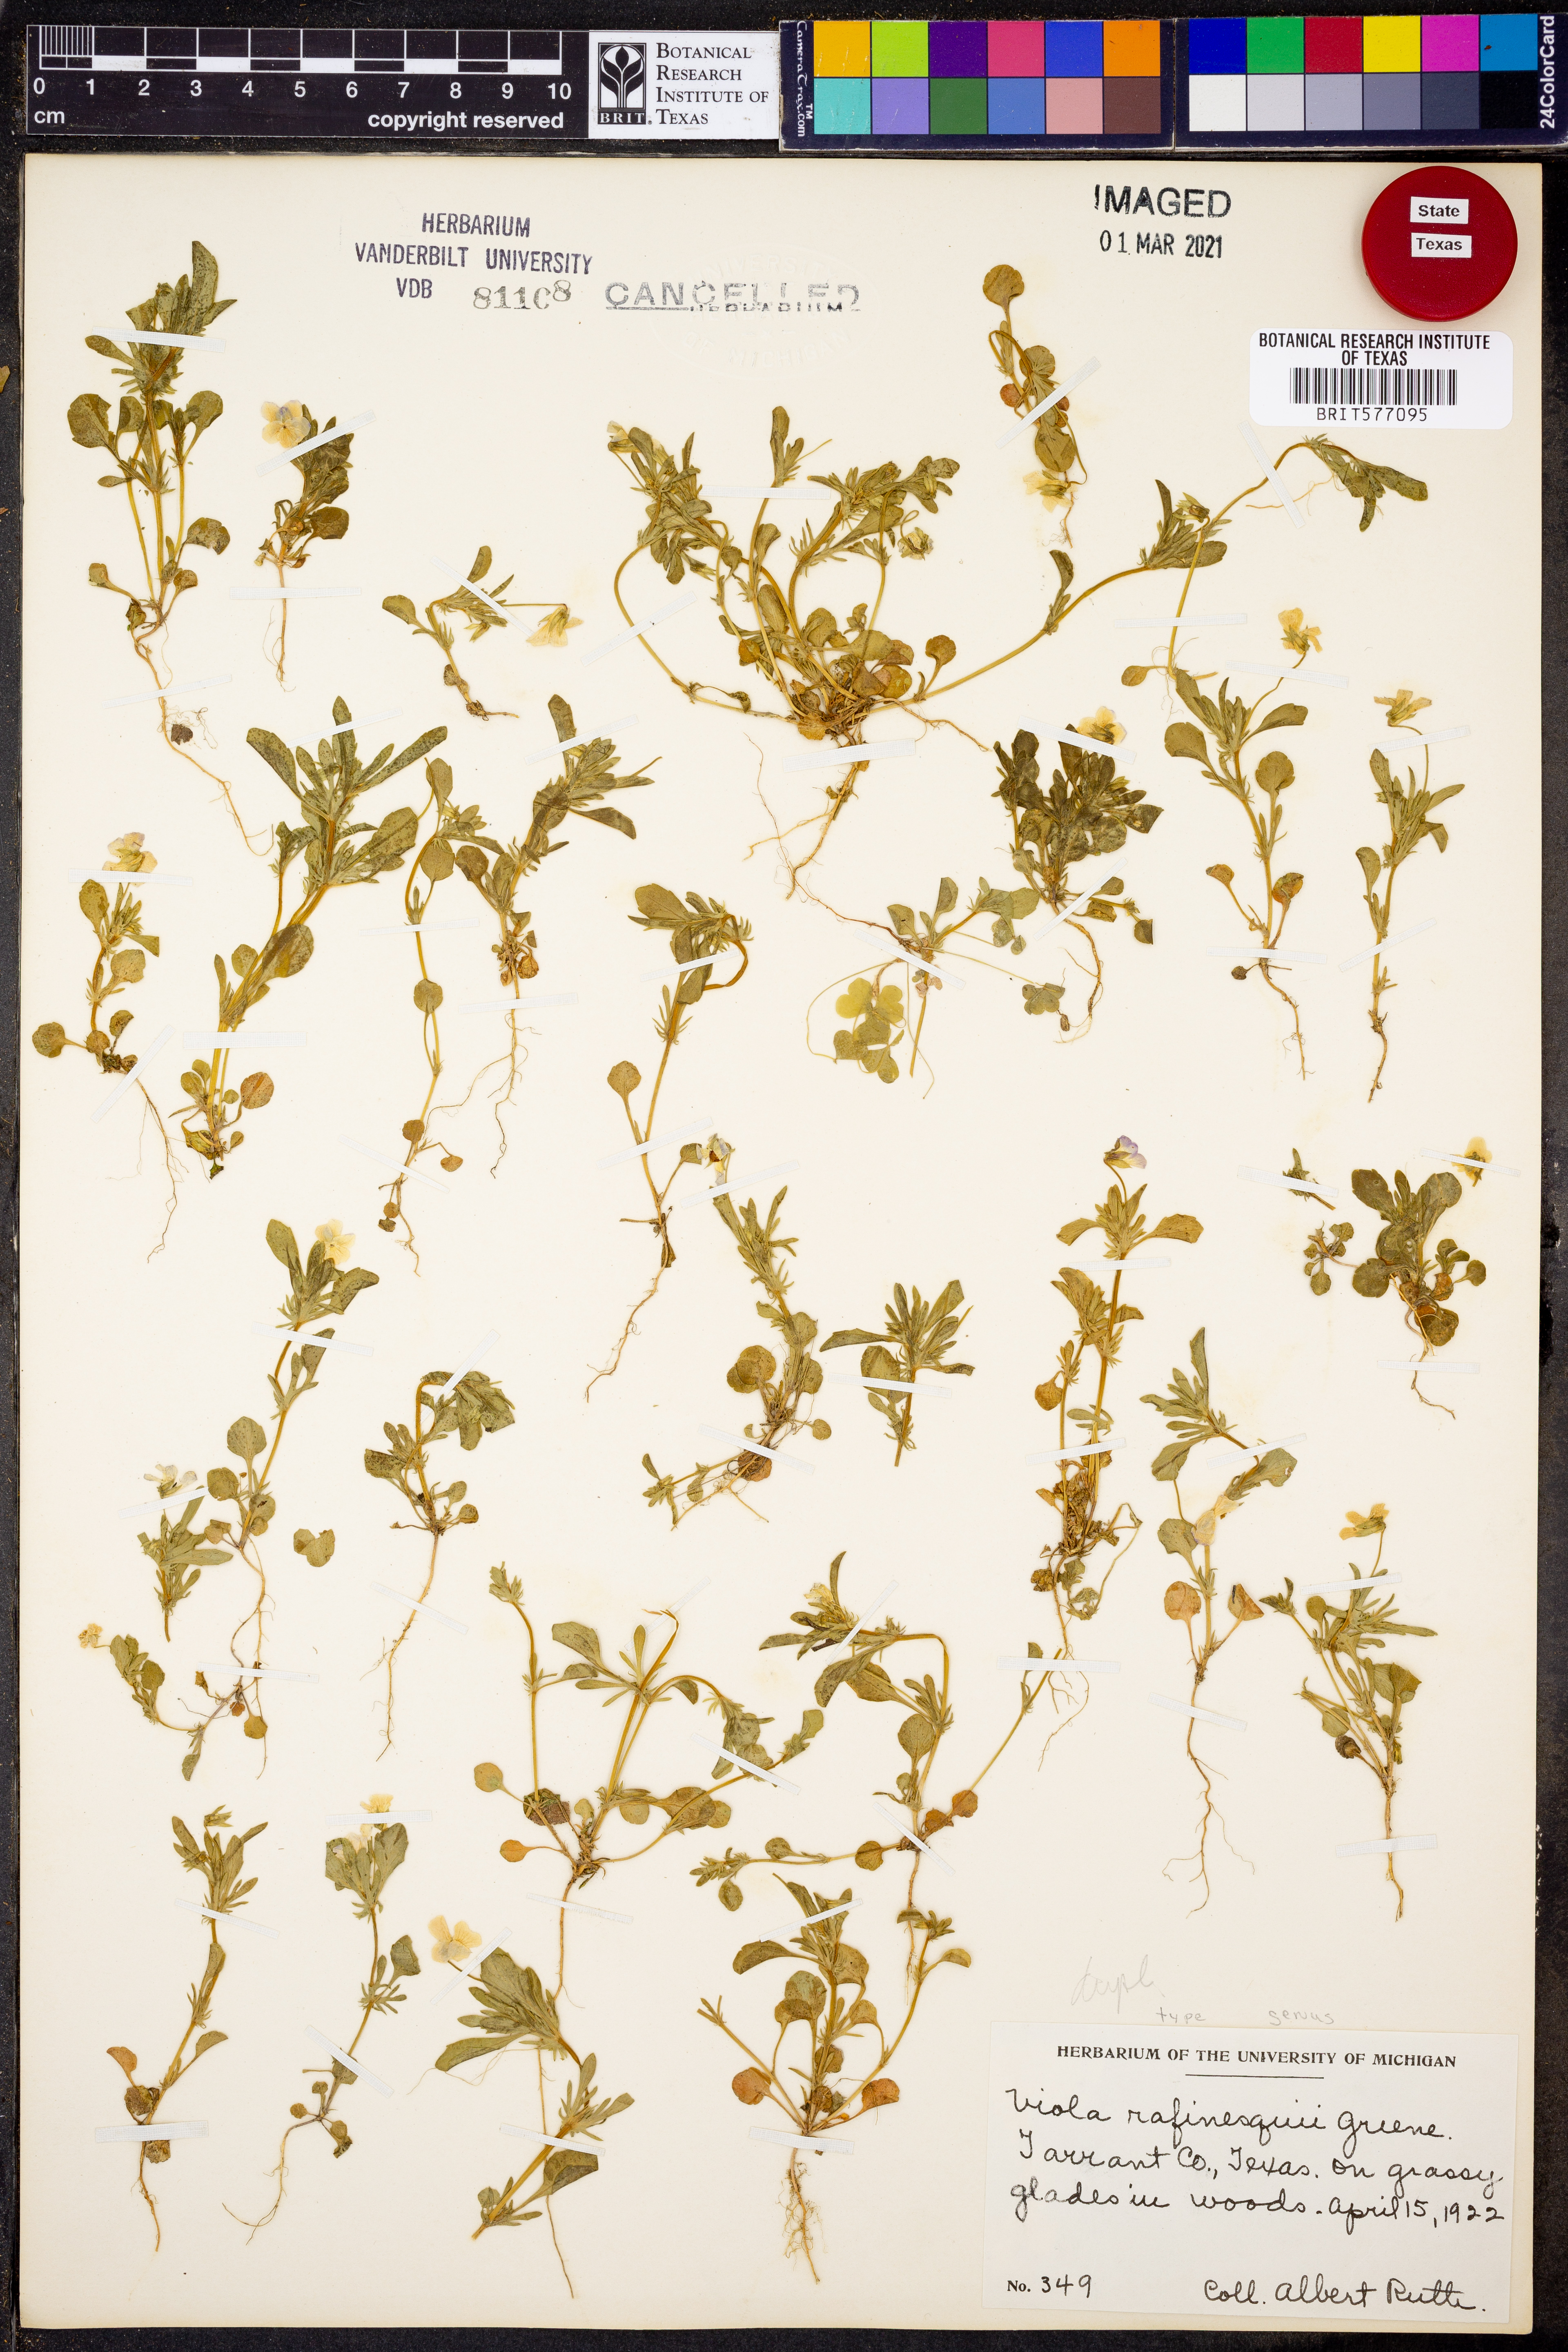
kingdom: Plantae
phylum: Tracheophyta
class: Magnoliopsida
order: Malpighiales
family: Violaceae
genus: Viola
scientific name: Viola rafinesquei
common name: American field pansy
